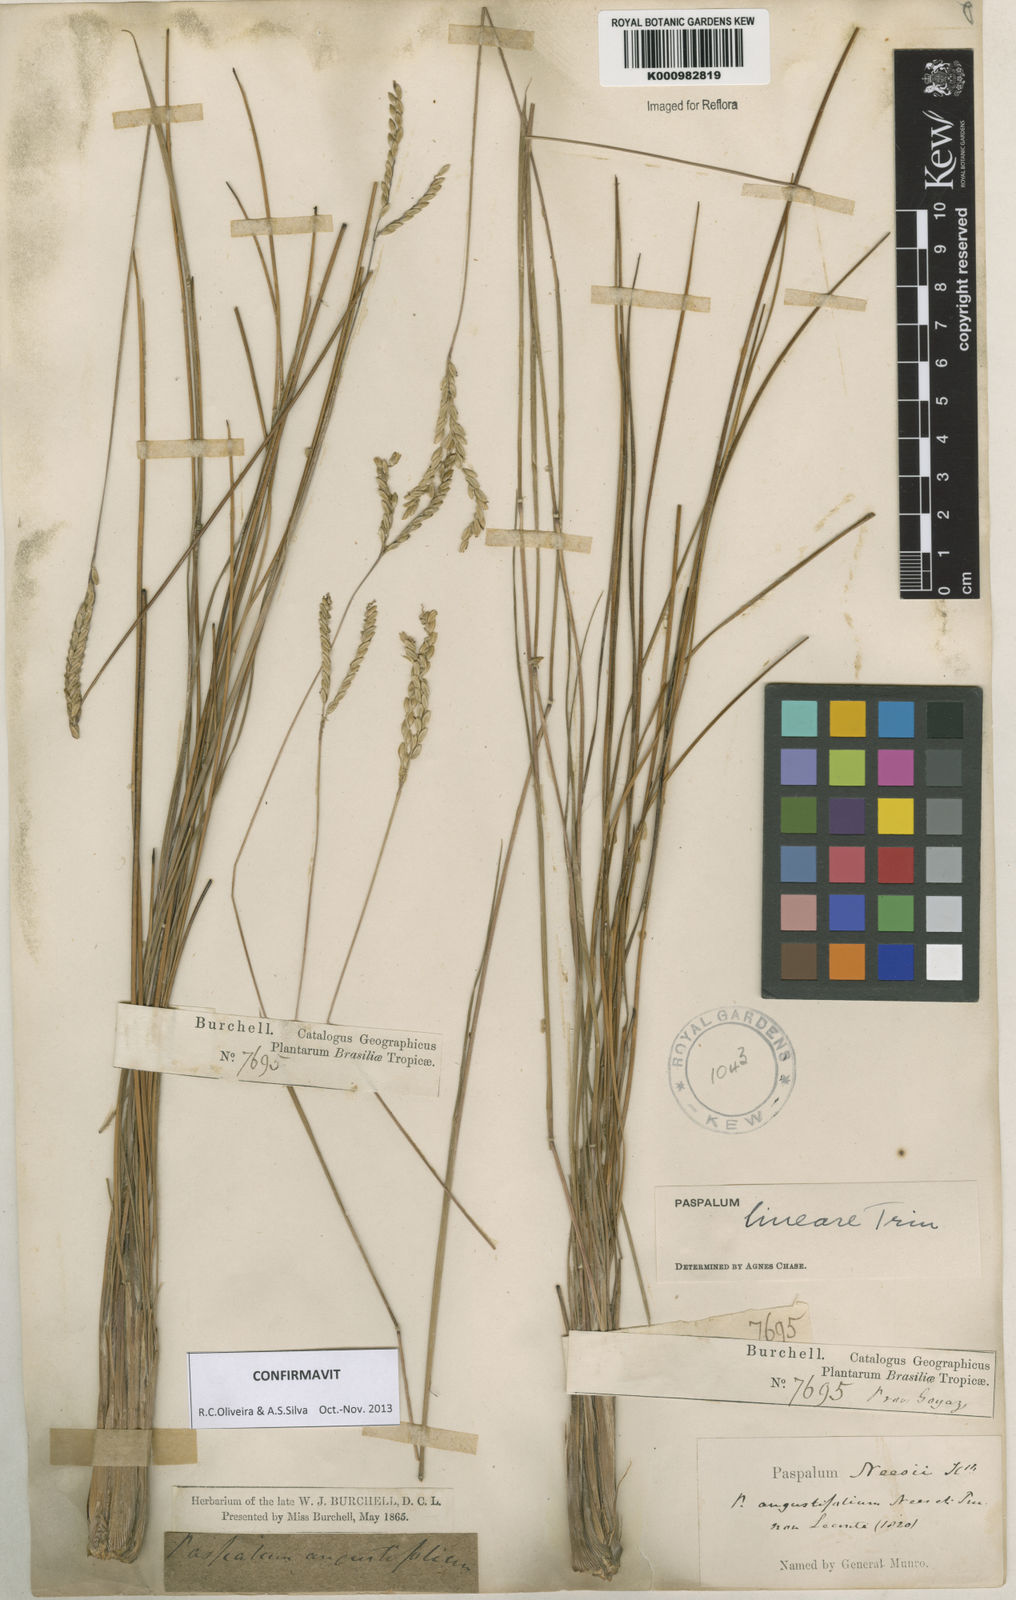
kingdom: Plantae
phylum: Tracheophyta
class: Liliopsida
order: Poales
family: Poaceae
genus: Paspalum
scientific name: Paspalum lineare
